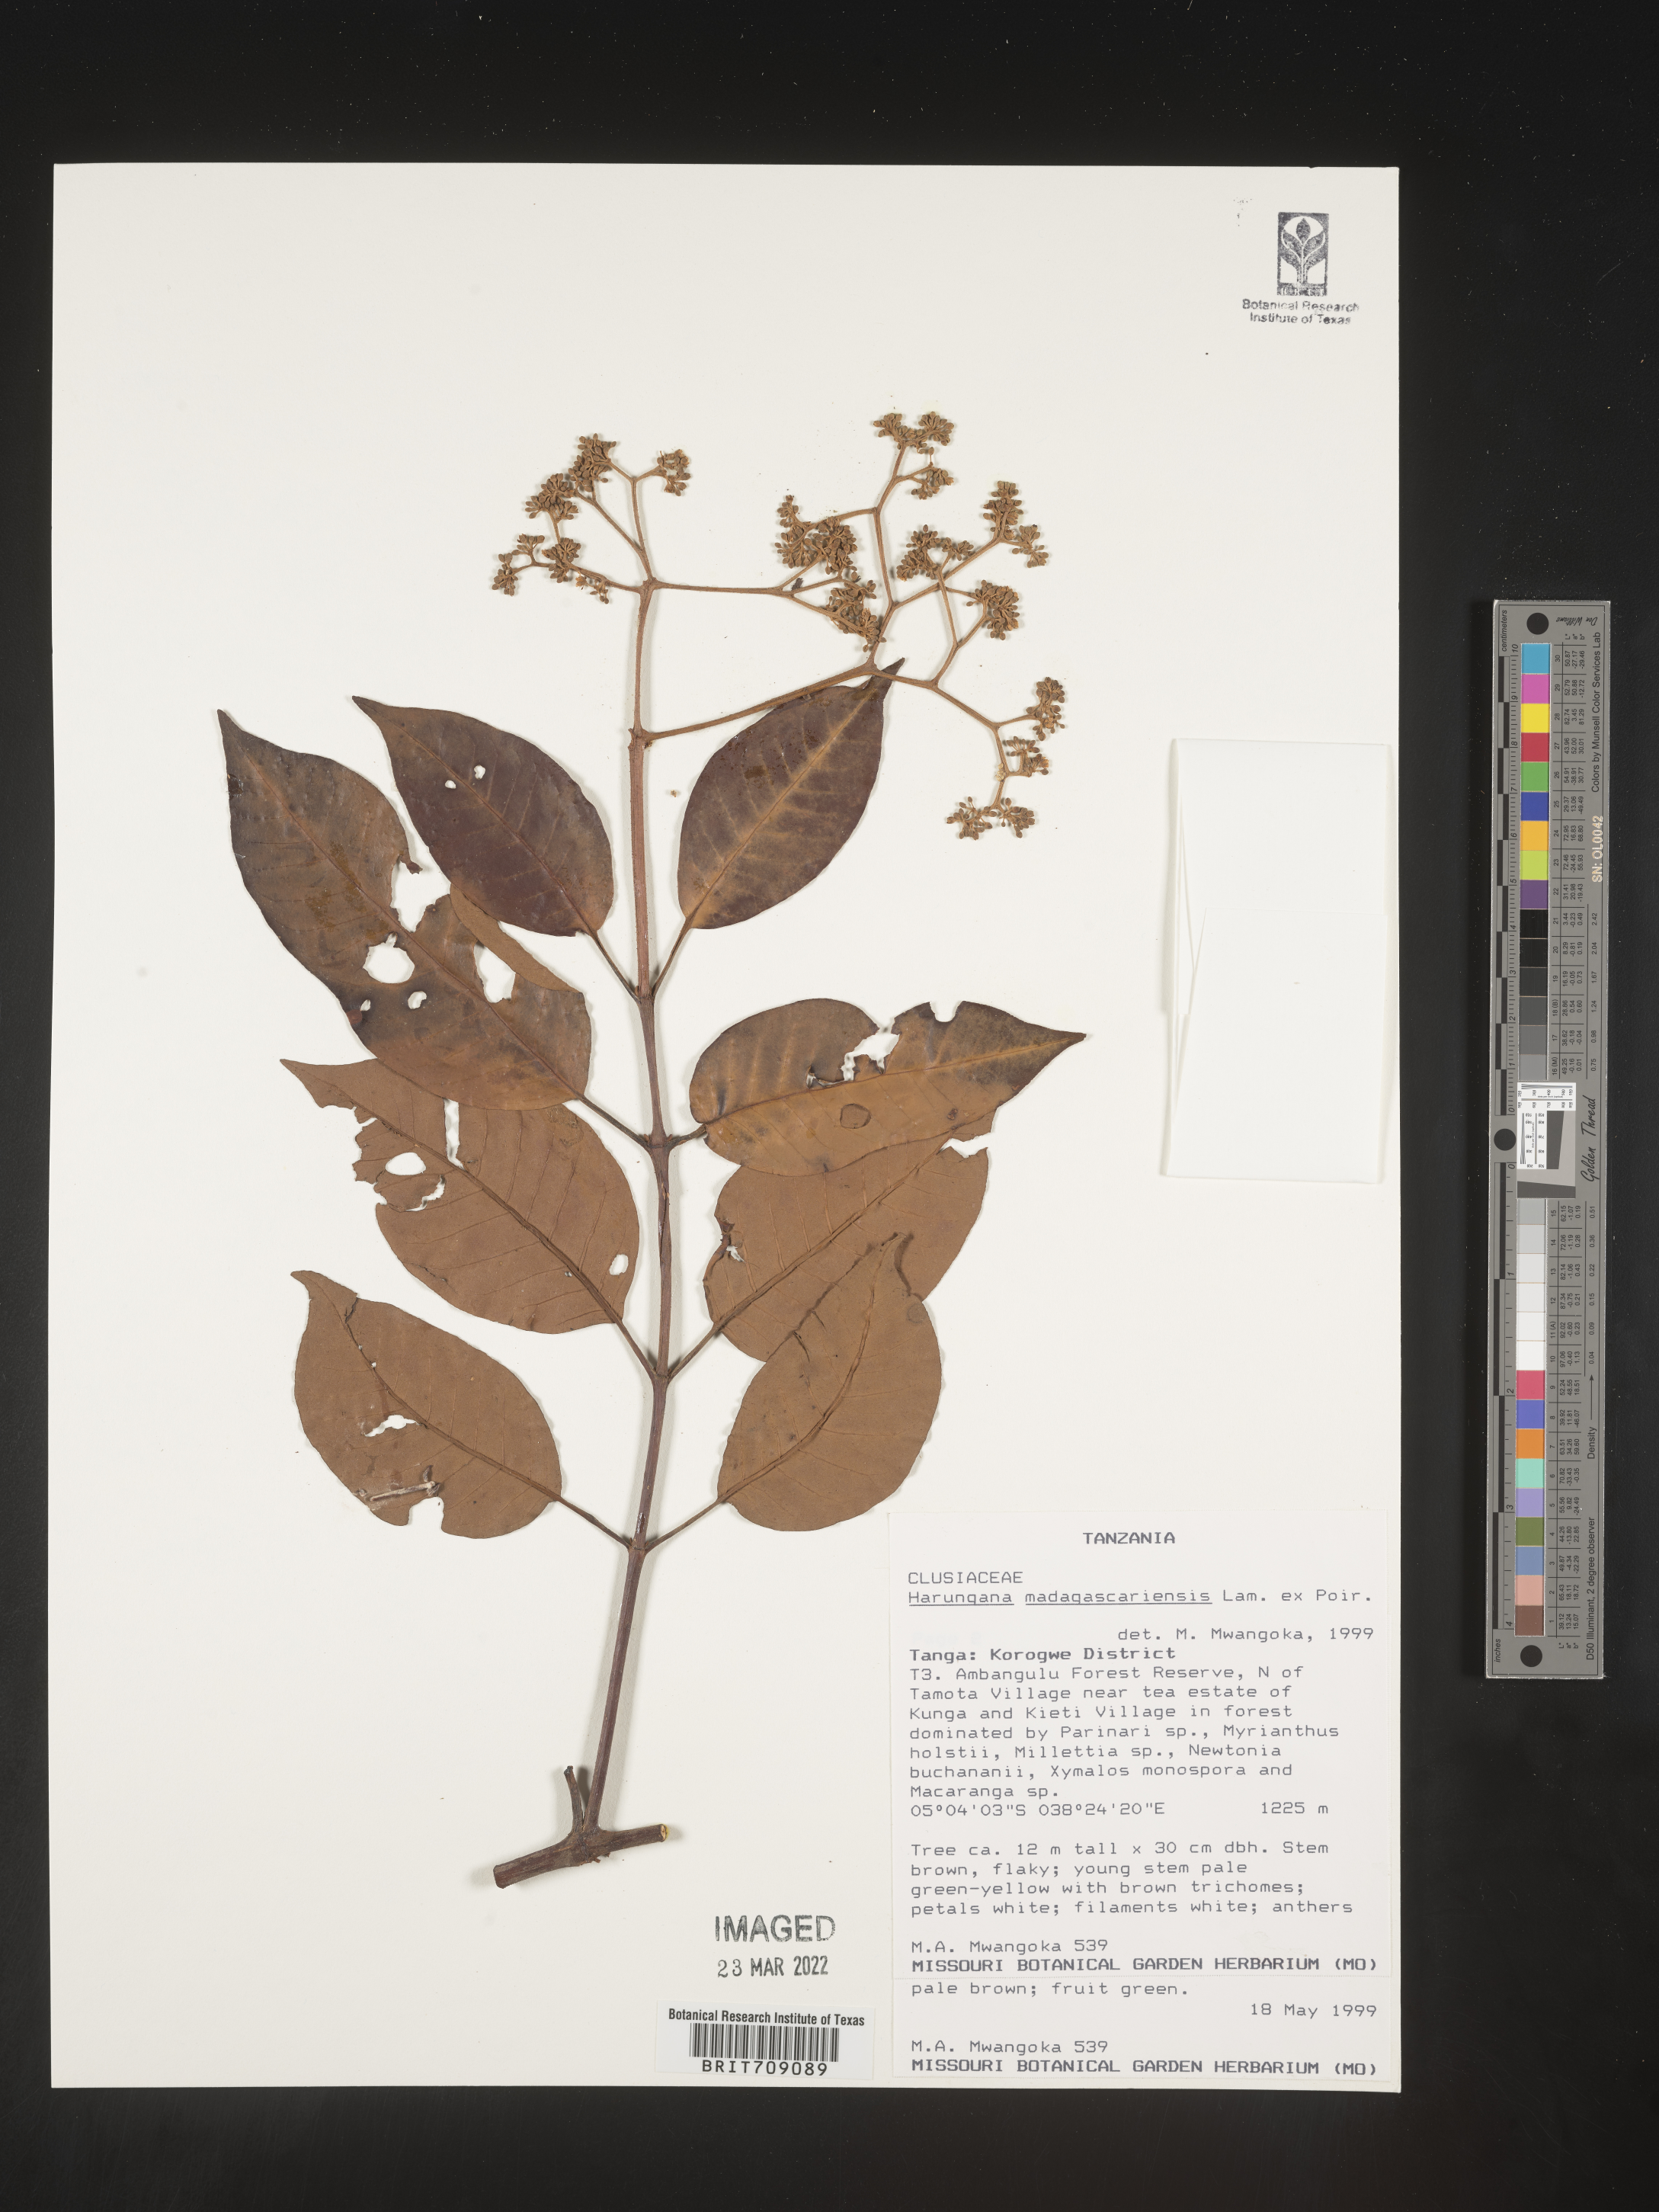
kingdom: Plantae
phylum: Tracheophyta
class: Magnoliopsida
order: Malpighiales
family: Hypericaceae
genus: Harungana
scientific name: Harungana
